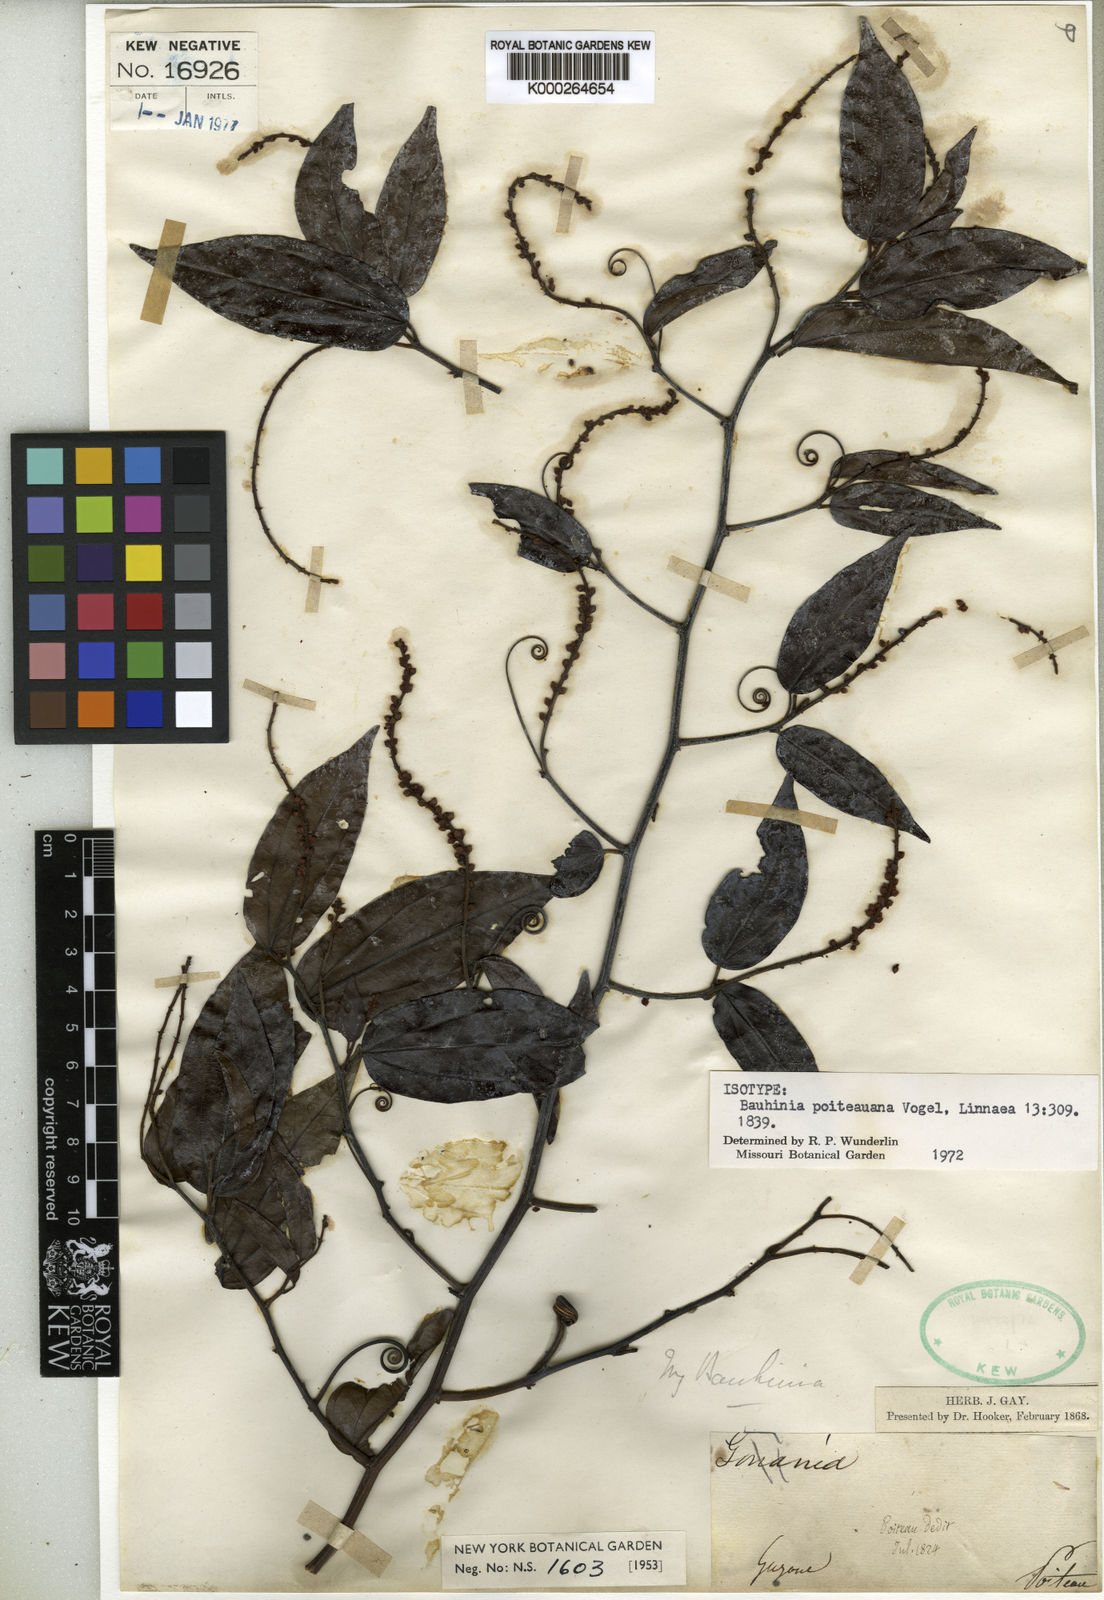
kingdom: Plantae
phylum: Tracheophyta
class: Magnoliopsida
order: Fabales
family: Fabaceae
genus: Schnella
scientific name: Schnella poiteauana
